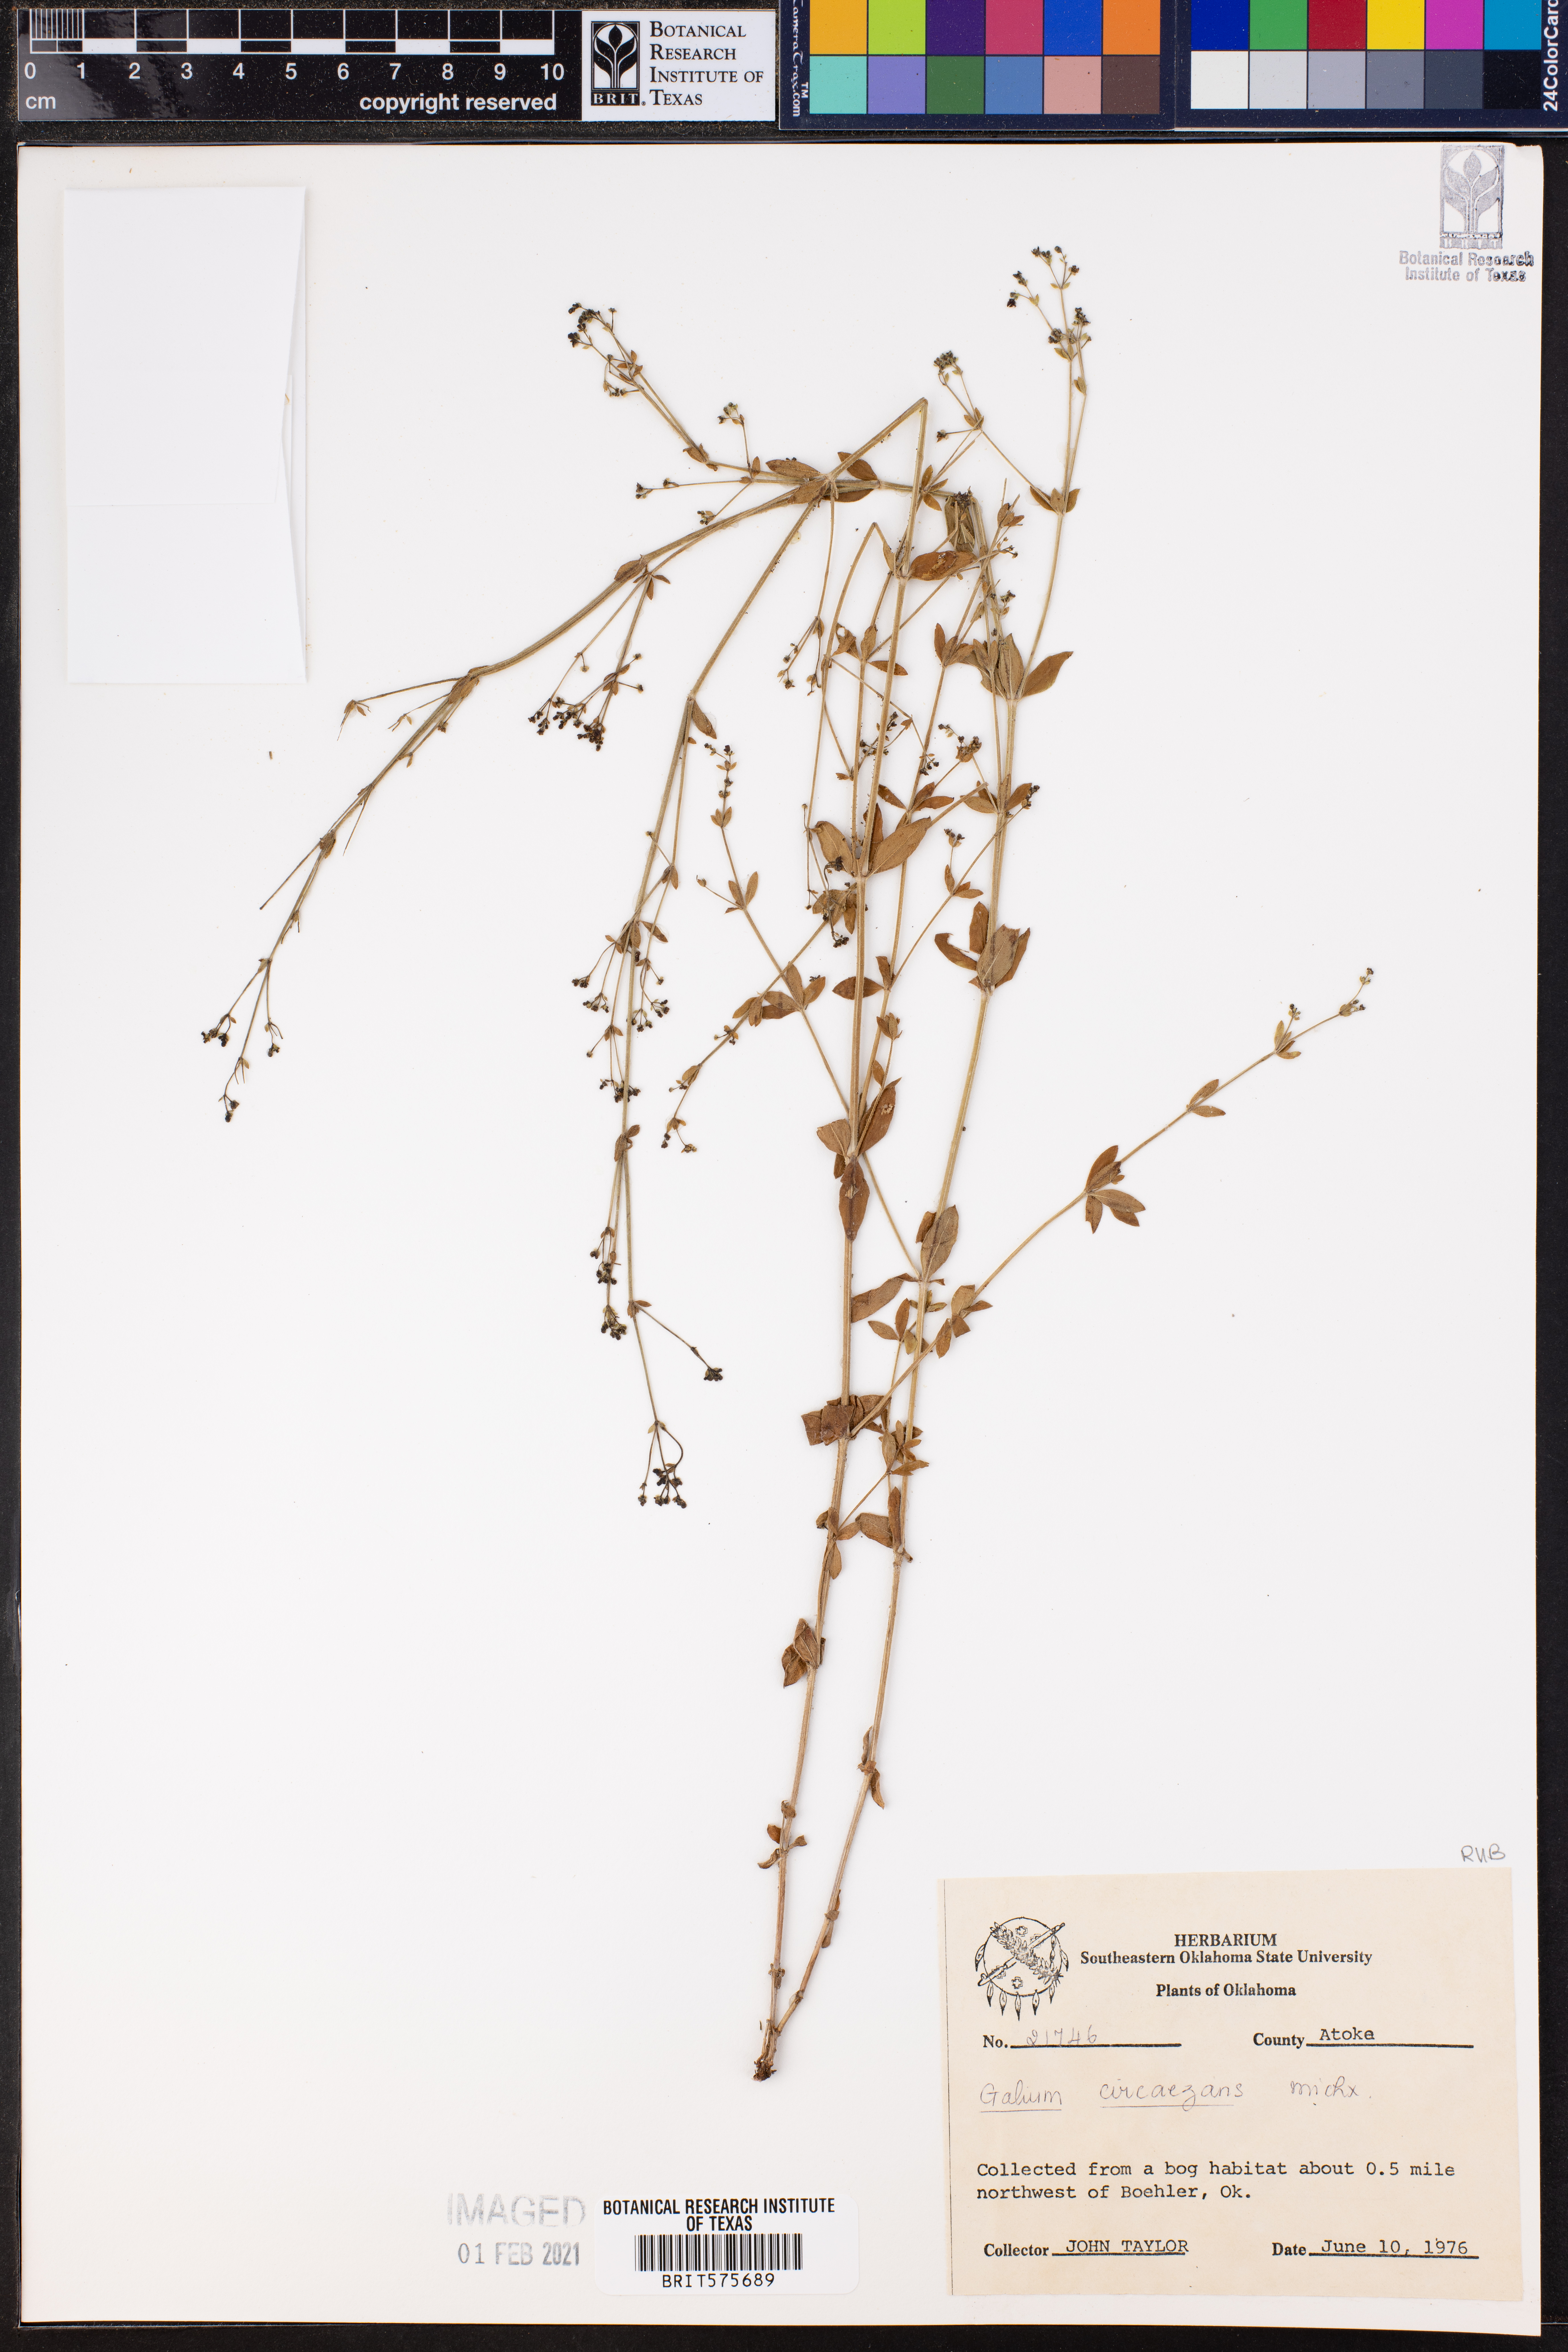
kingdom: Plantae
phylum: Tracheophyta
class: Magnoliopsida
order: Gentianales
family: Rubiaceae
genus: Galium
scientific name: Galium circaezans
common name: Forest bedstraw
